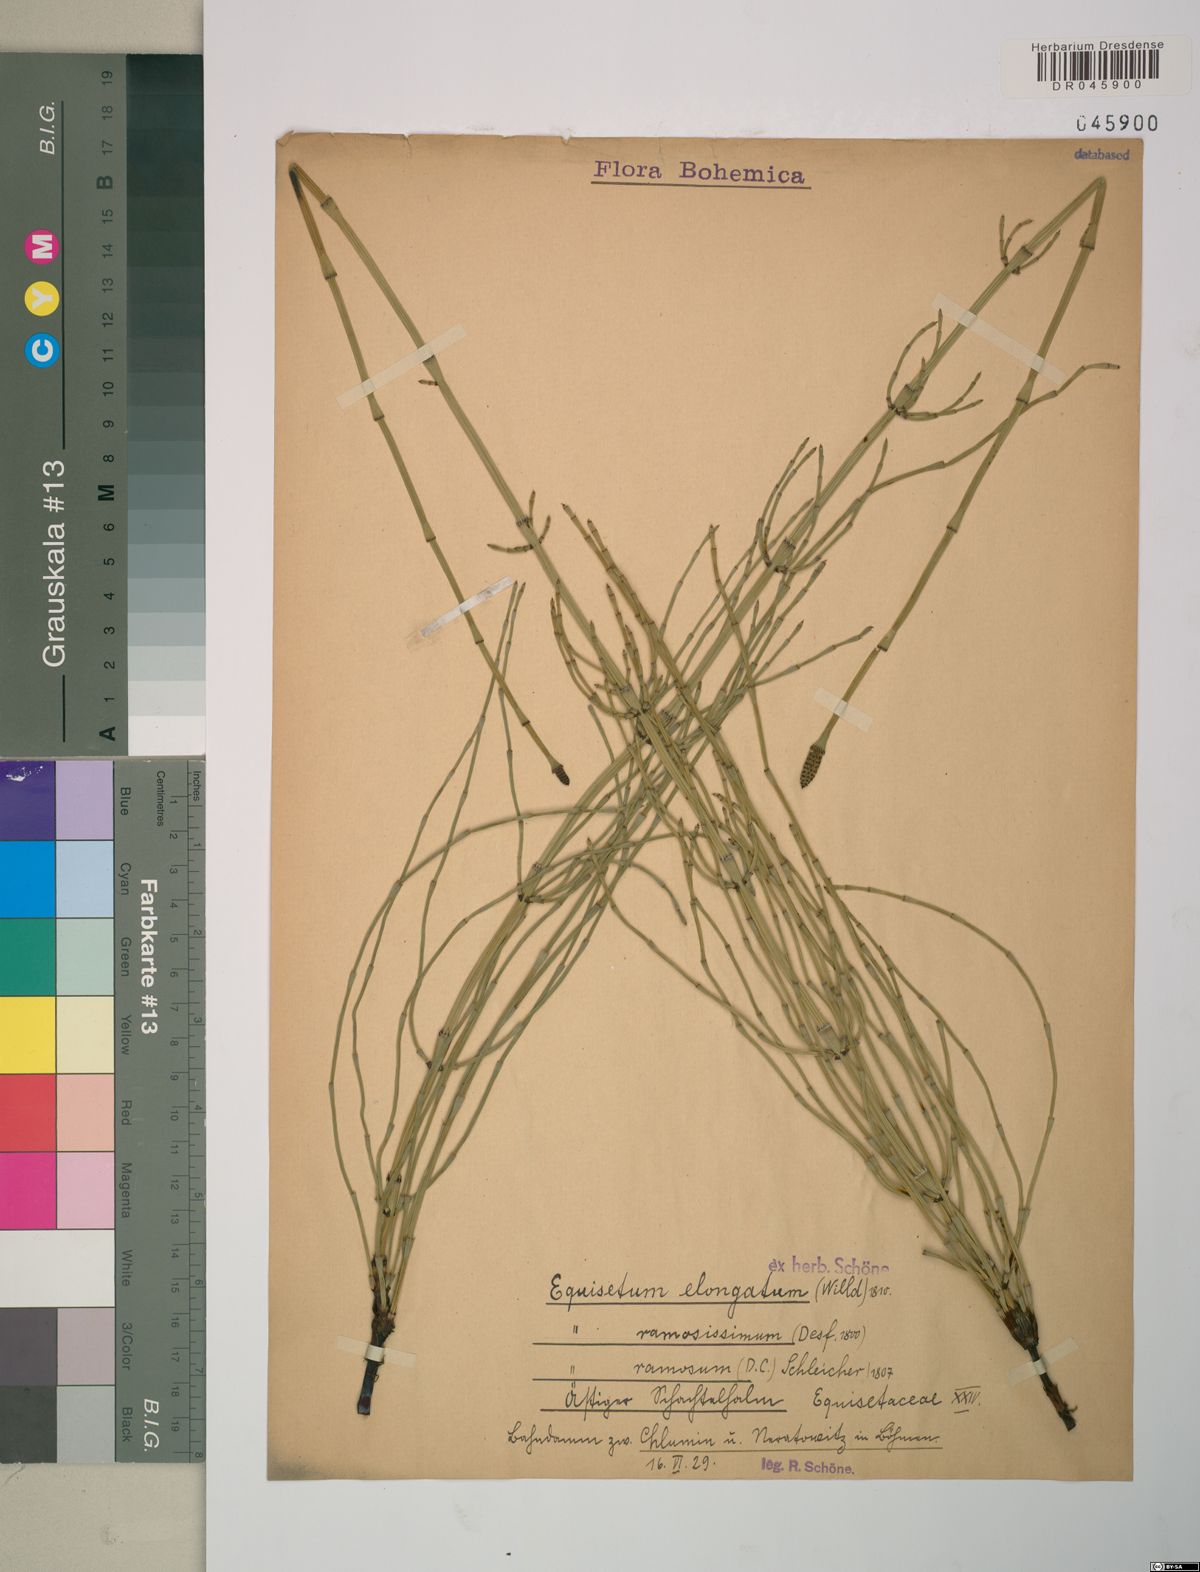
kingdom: Plantae
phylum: Tracheophyta
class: Polypodiopsida
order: Equisetales
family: Equisetaceae
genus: Equisetum
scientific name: Equisetum ramosissimum
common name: Branched horsetail
